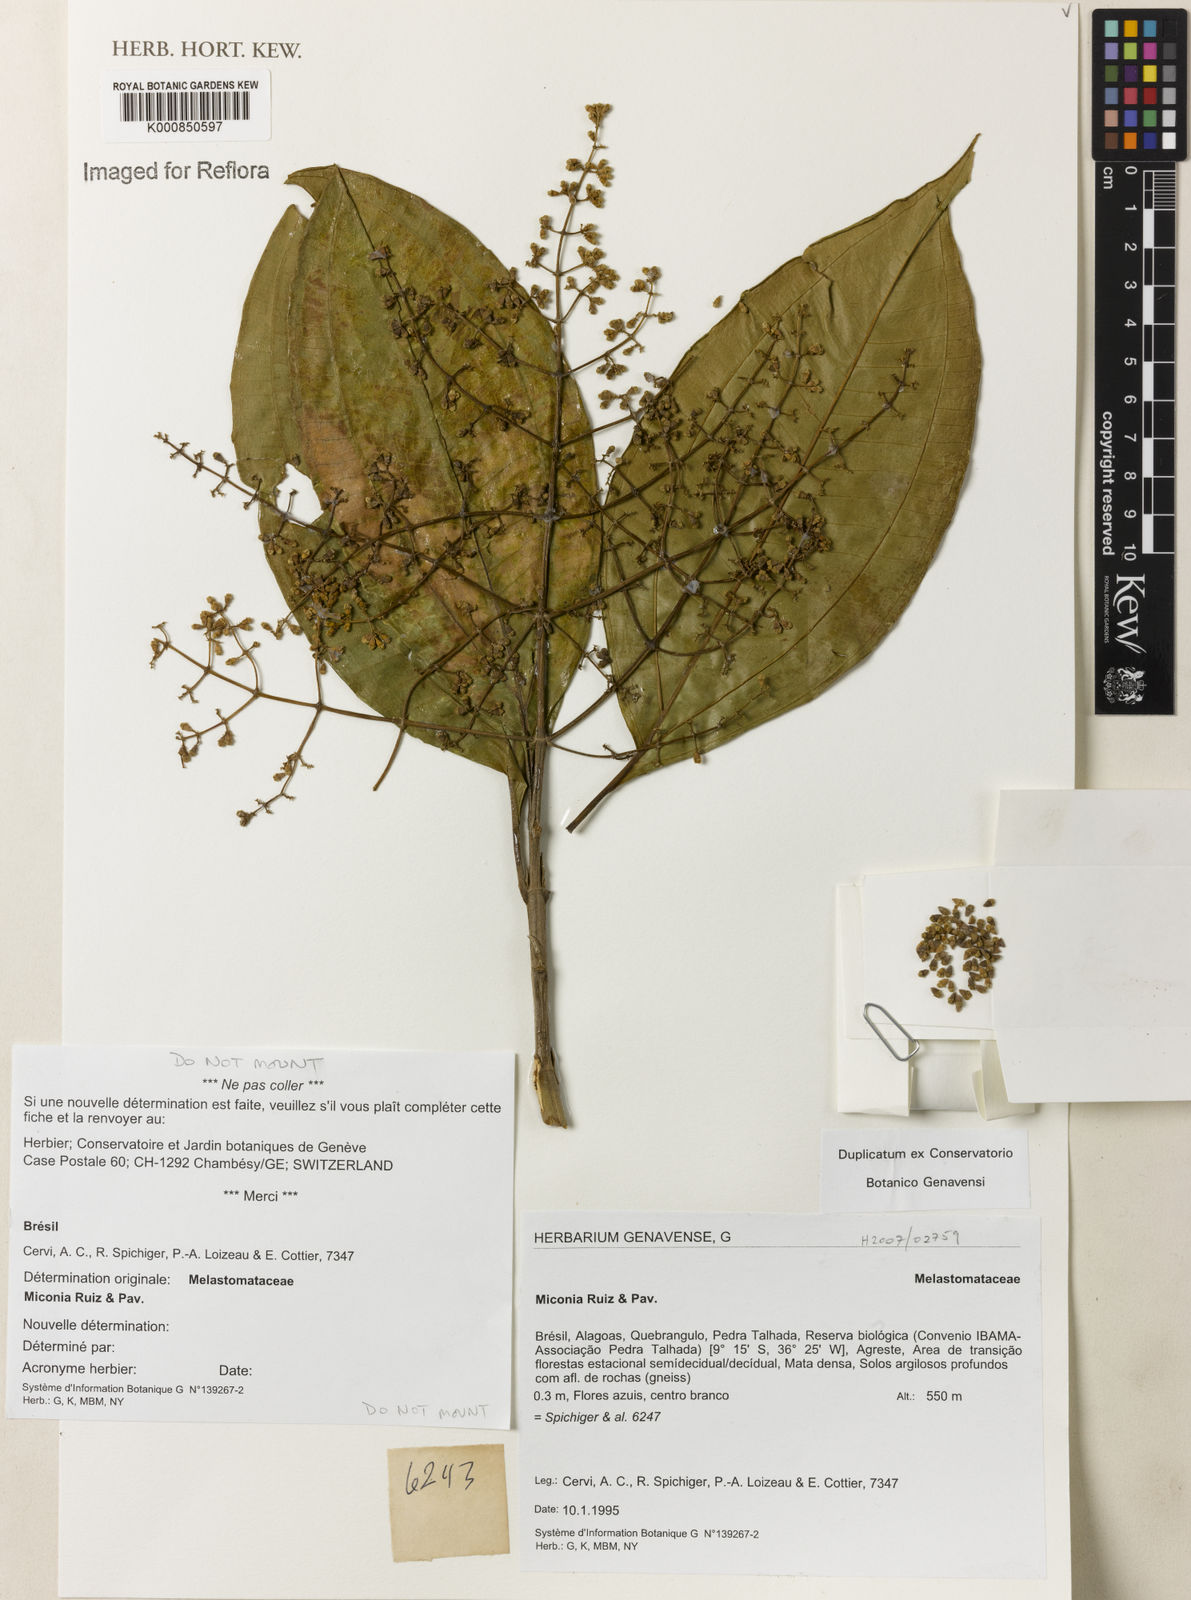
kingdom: Plantae
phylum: Tracheophyta
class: Magnoliopsida
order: Myrtales
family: Melastomataceae
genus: Miconia
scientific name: Miconia
